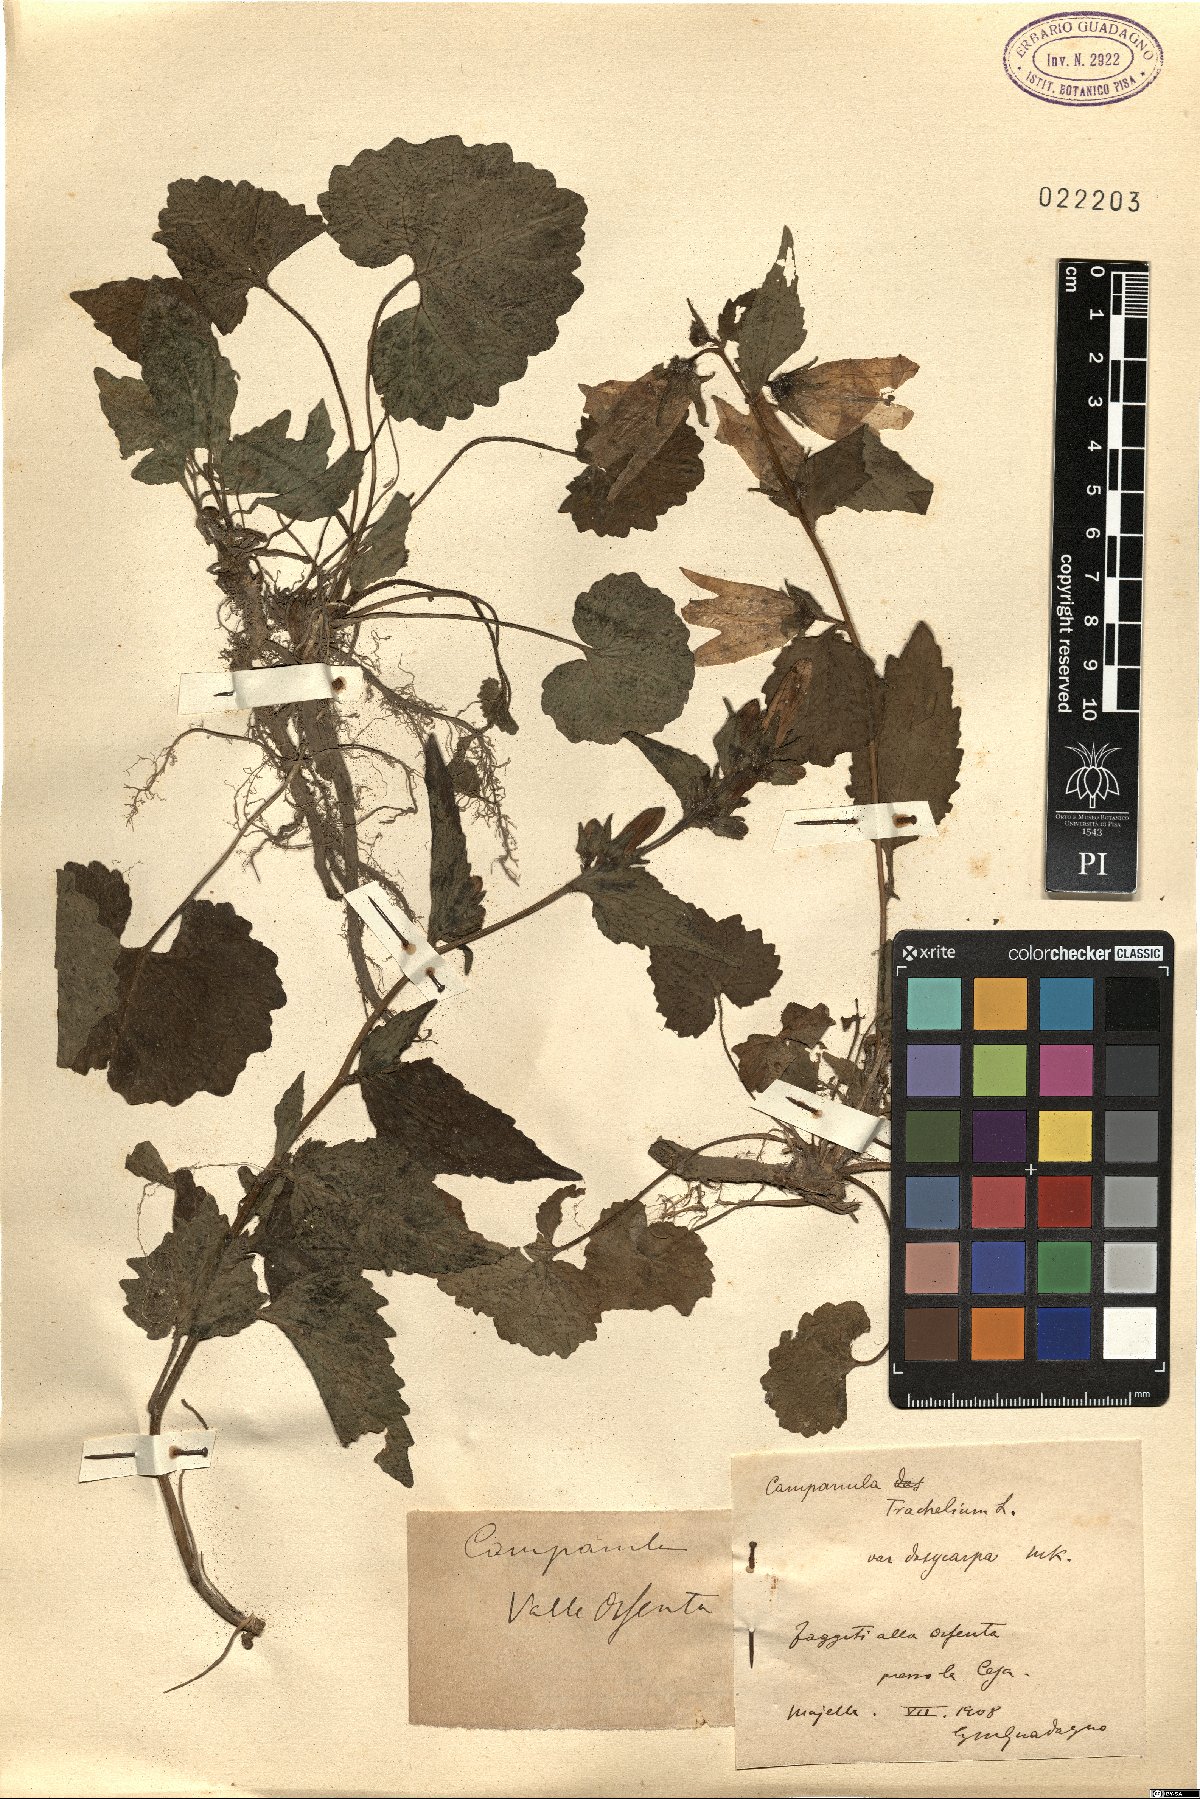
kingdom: Plantae
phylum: Tracheophyta
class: Magnoliopsida
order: Asterales
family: Campanulaceae
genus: Campanula
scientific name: Campanula trachelium
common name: Nettle-leaved bellflower
